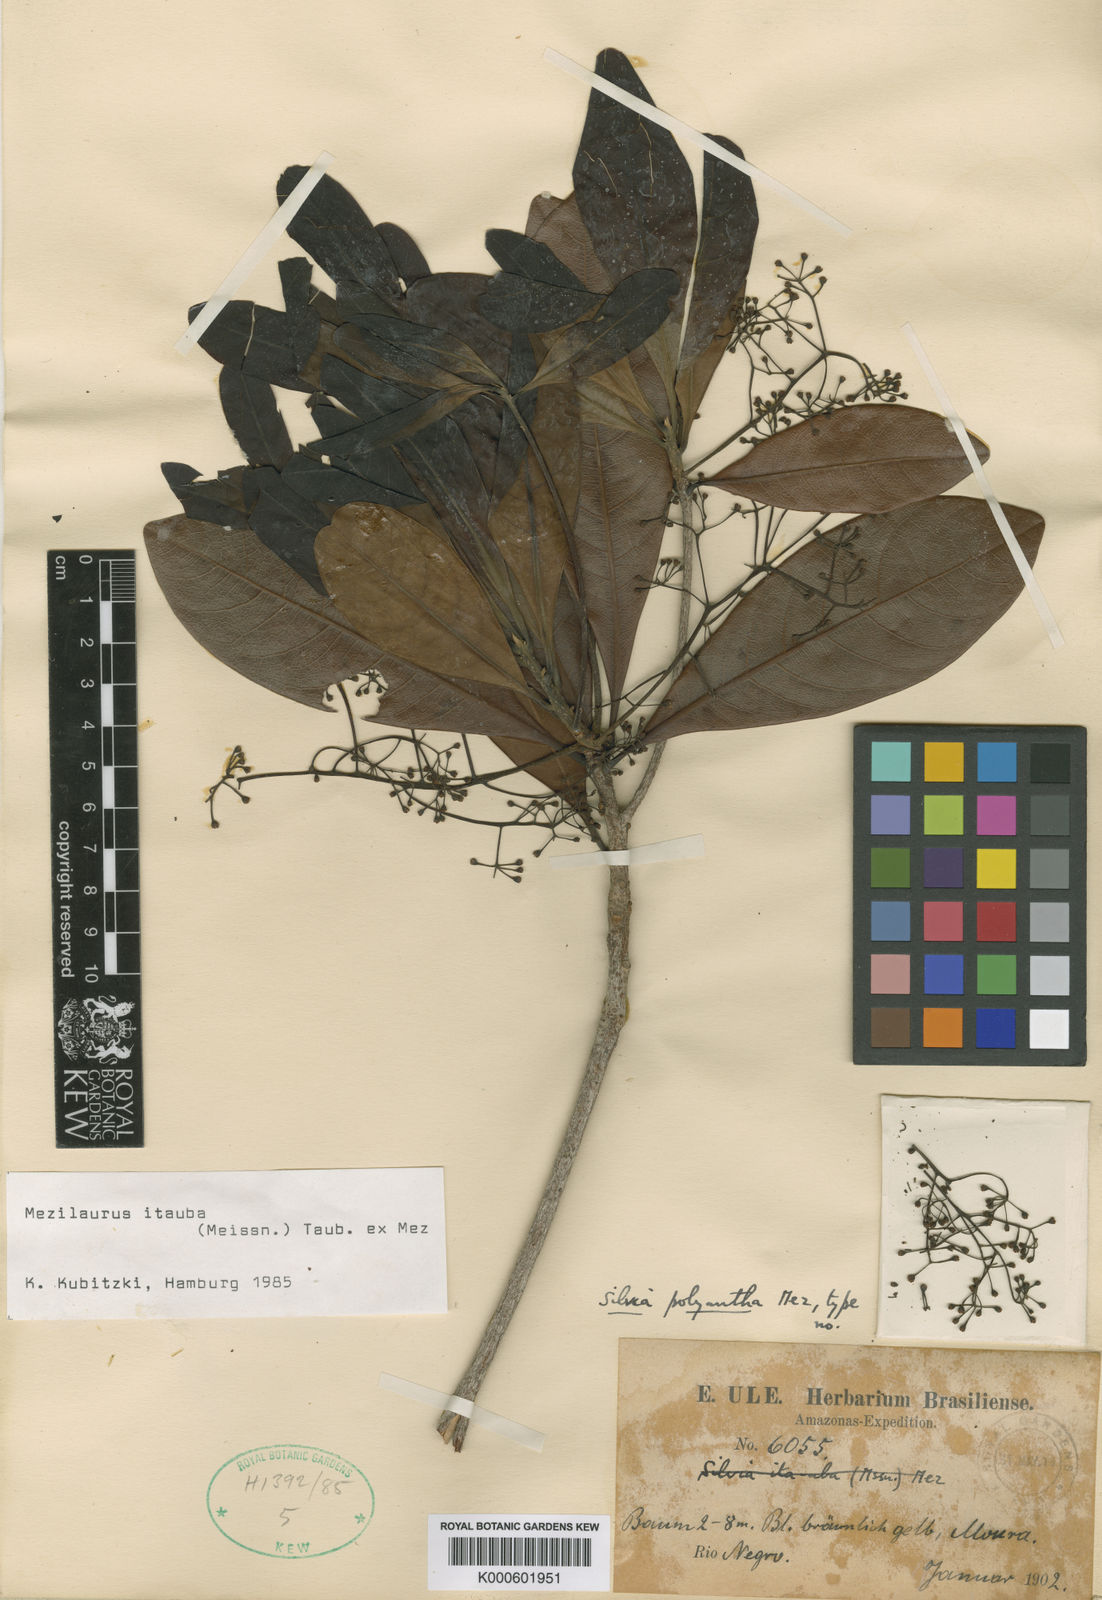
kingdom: Plantae
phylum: Tracheophyta
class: Magnoliopsida
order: Laurales
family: Lauraceae
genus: Mezilaurus
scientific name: Mezilaurus ita-uba
